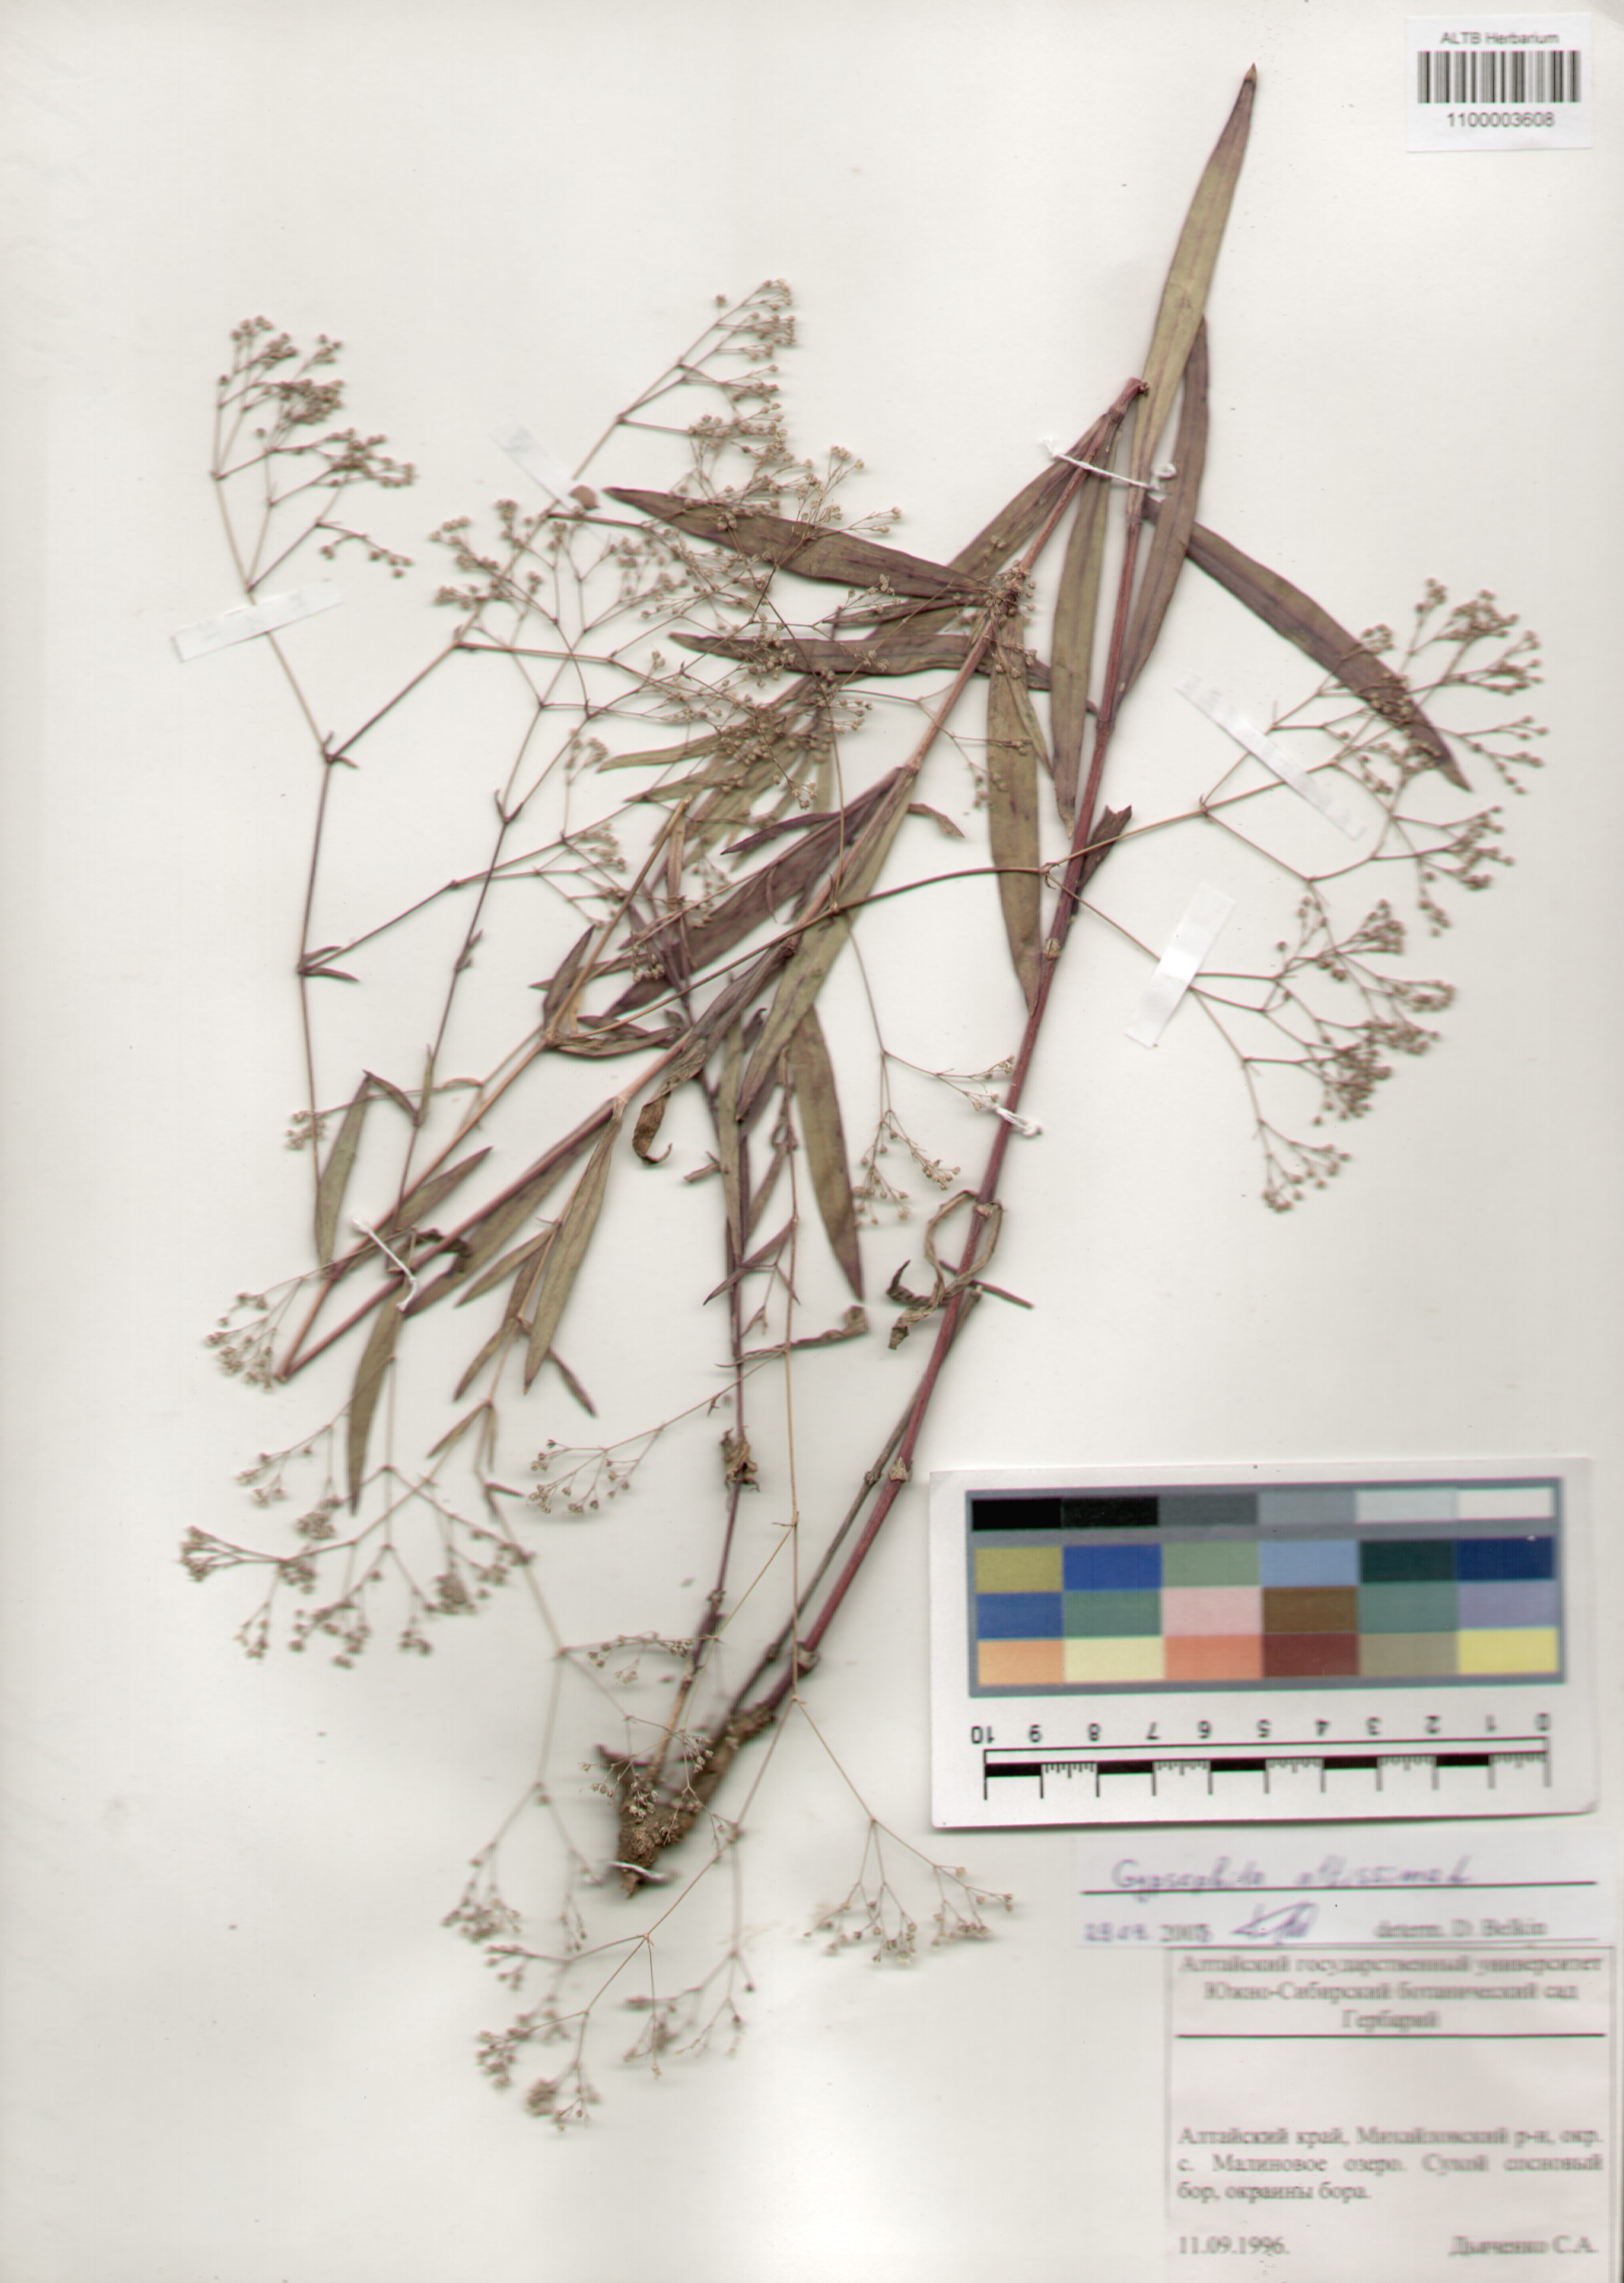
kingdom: Plantae
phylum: Tracheophyta
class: Magnoliopsida
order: Caryophyllales
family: Caryophyllaceae
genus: Gypsophila
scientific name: Gypsophila altissima
